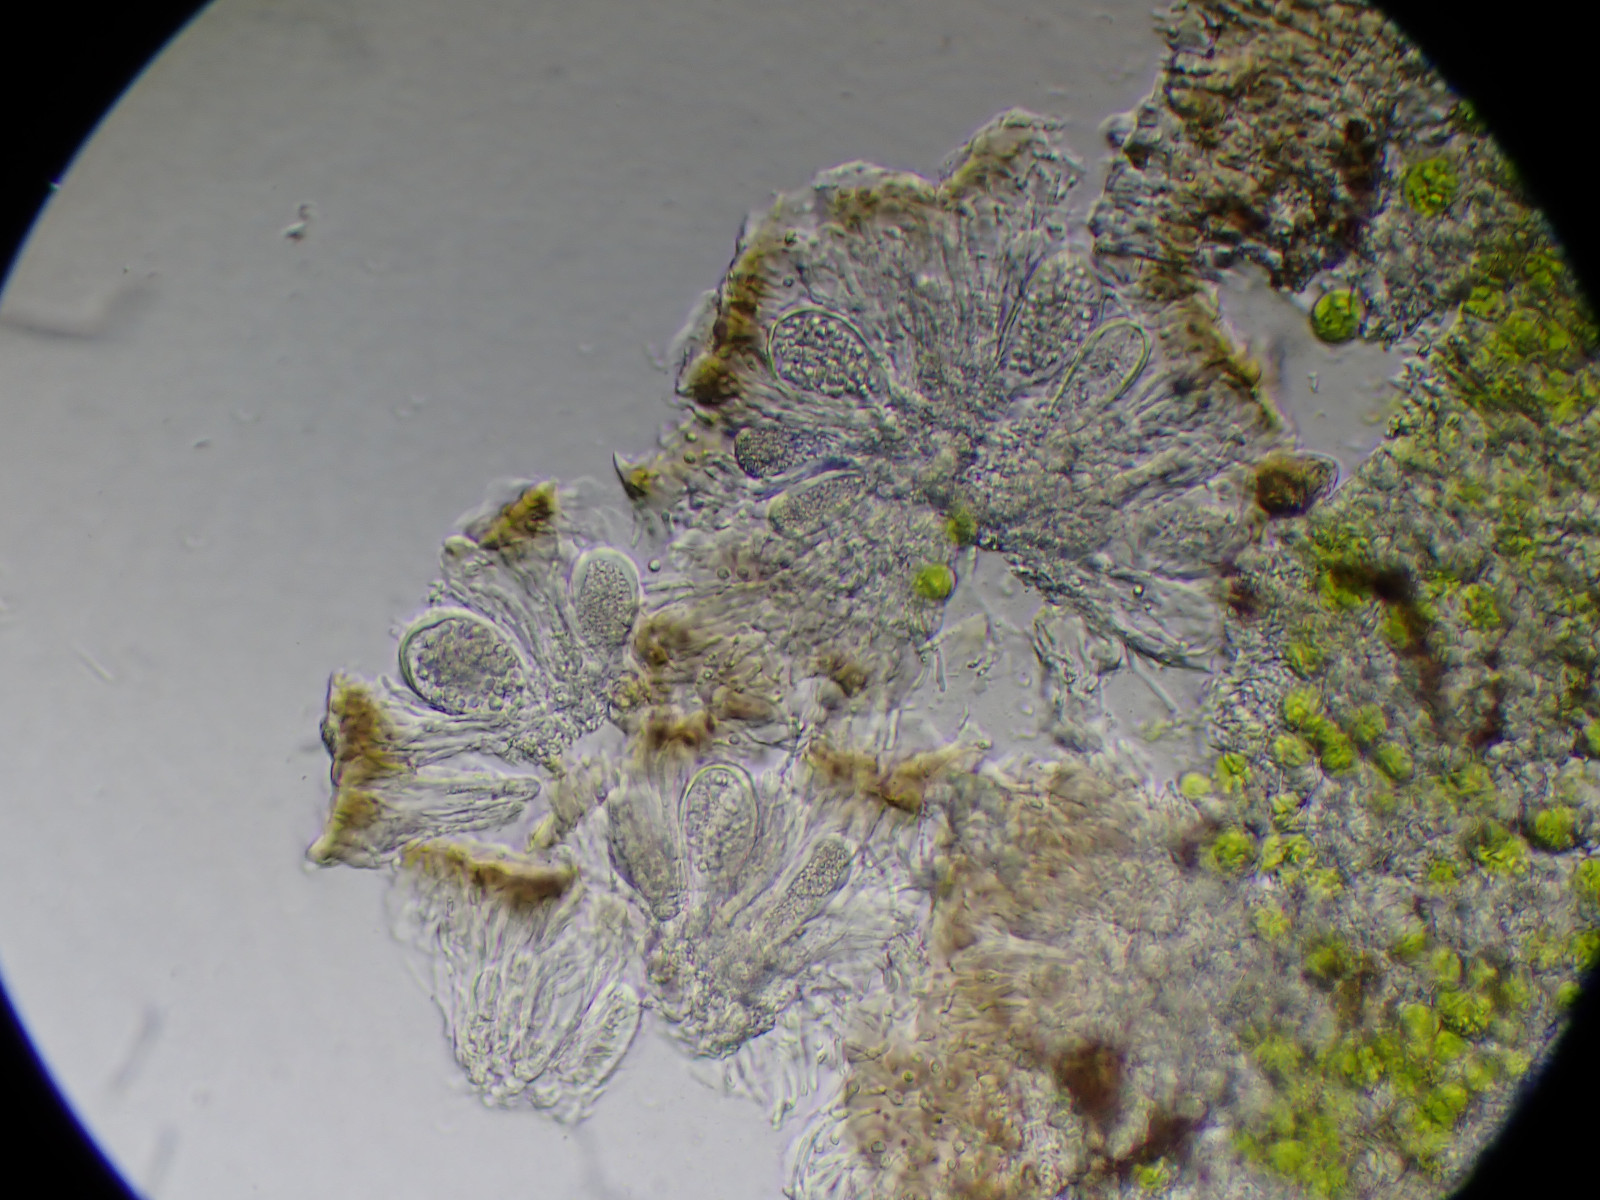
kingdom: Fungi
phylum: Ascomycota
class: Lecanoromycetes
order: Lecanorales
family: Strangosporaceae
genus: Strangospora
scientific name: Strangospora pinicola
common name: bark-tusindsporelav
